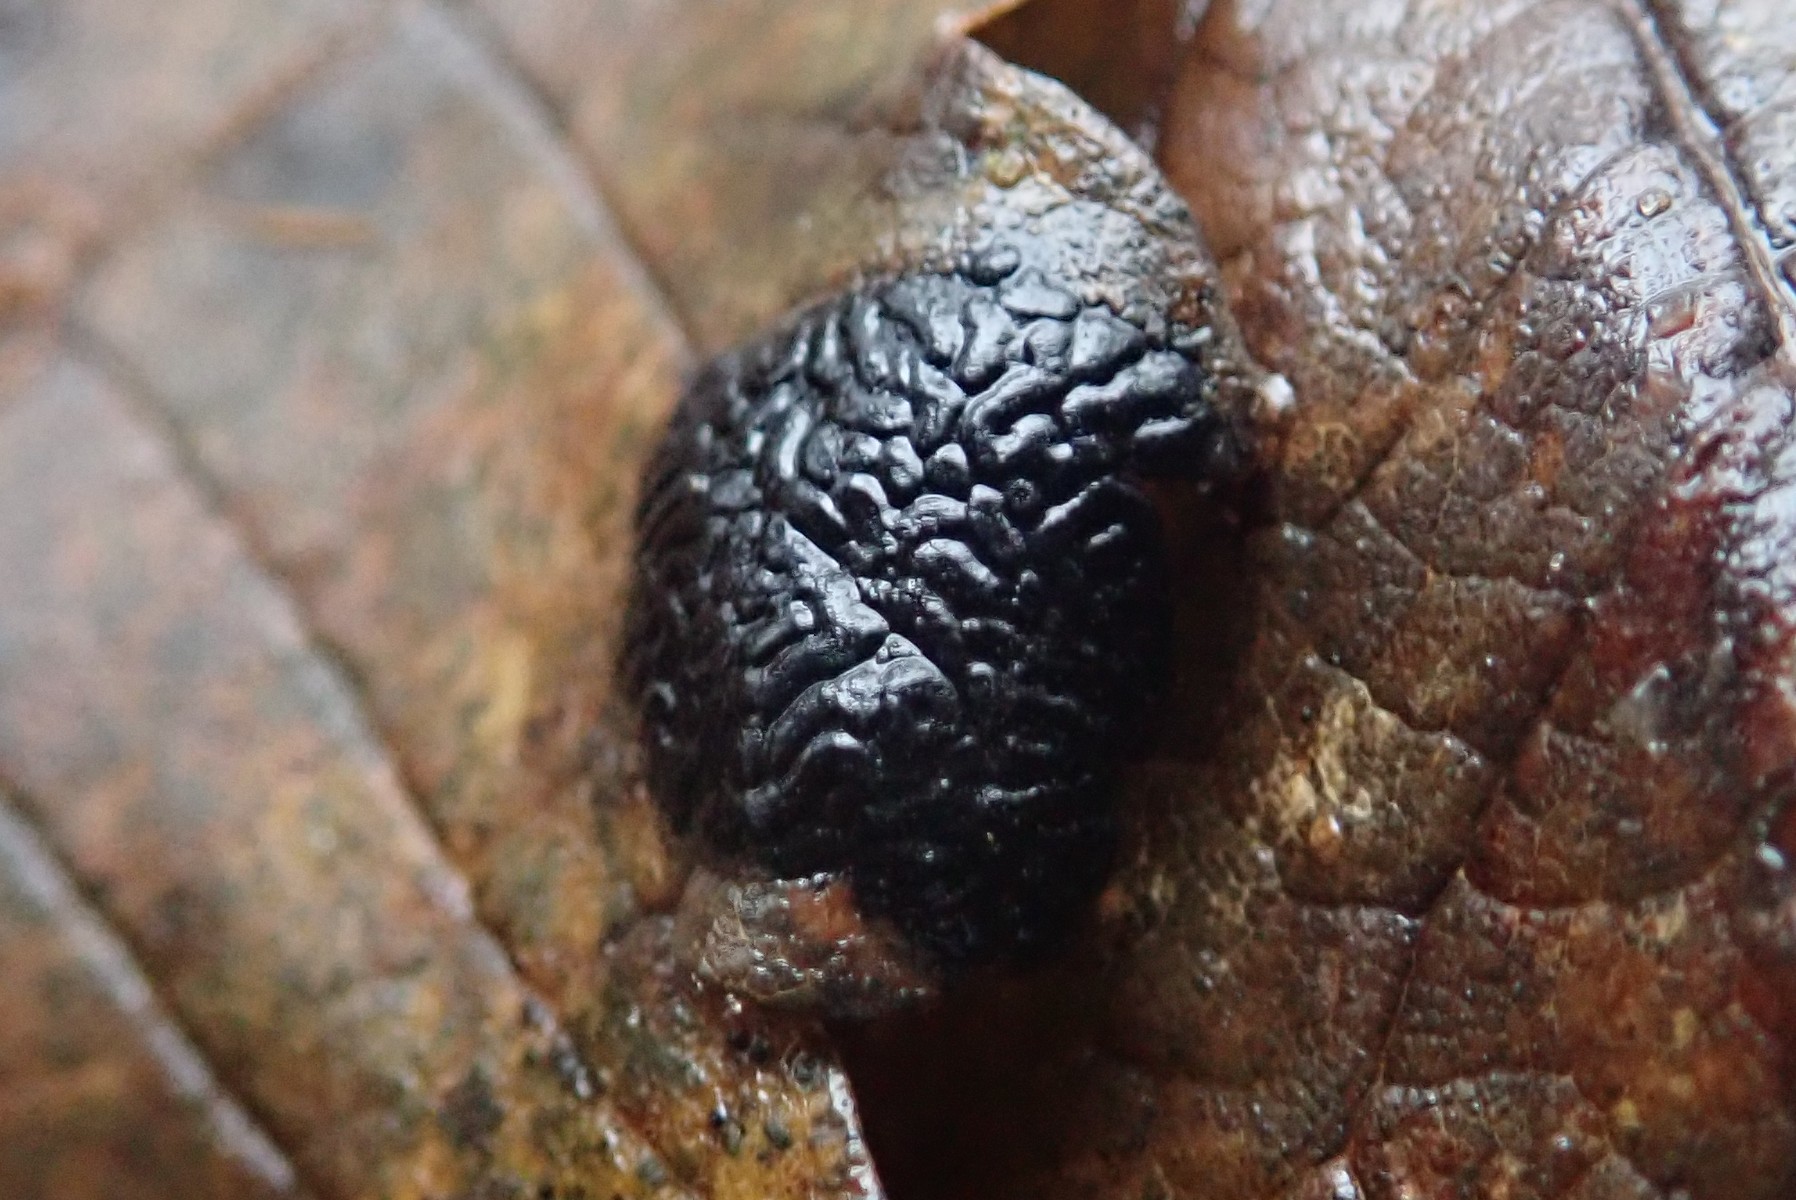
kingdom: Fungi
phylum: Ascomycota
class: Leotiomycetes
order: Rhytismatales
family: Rhytismataceae
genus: Rhytisma
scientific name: Rhytisma acerinum
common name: ahorn-rynkeplet
